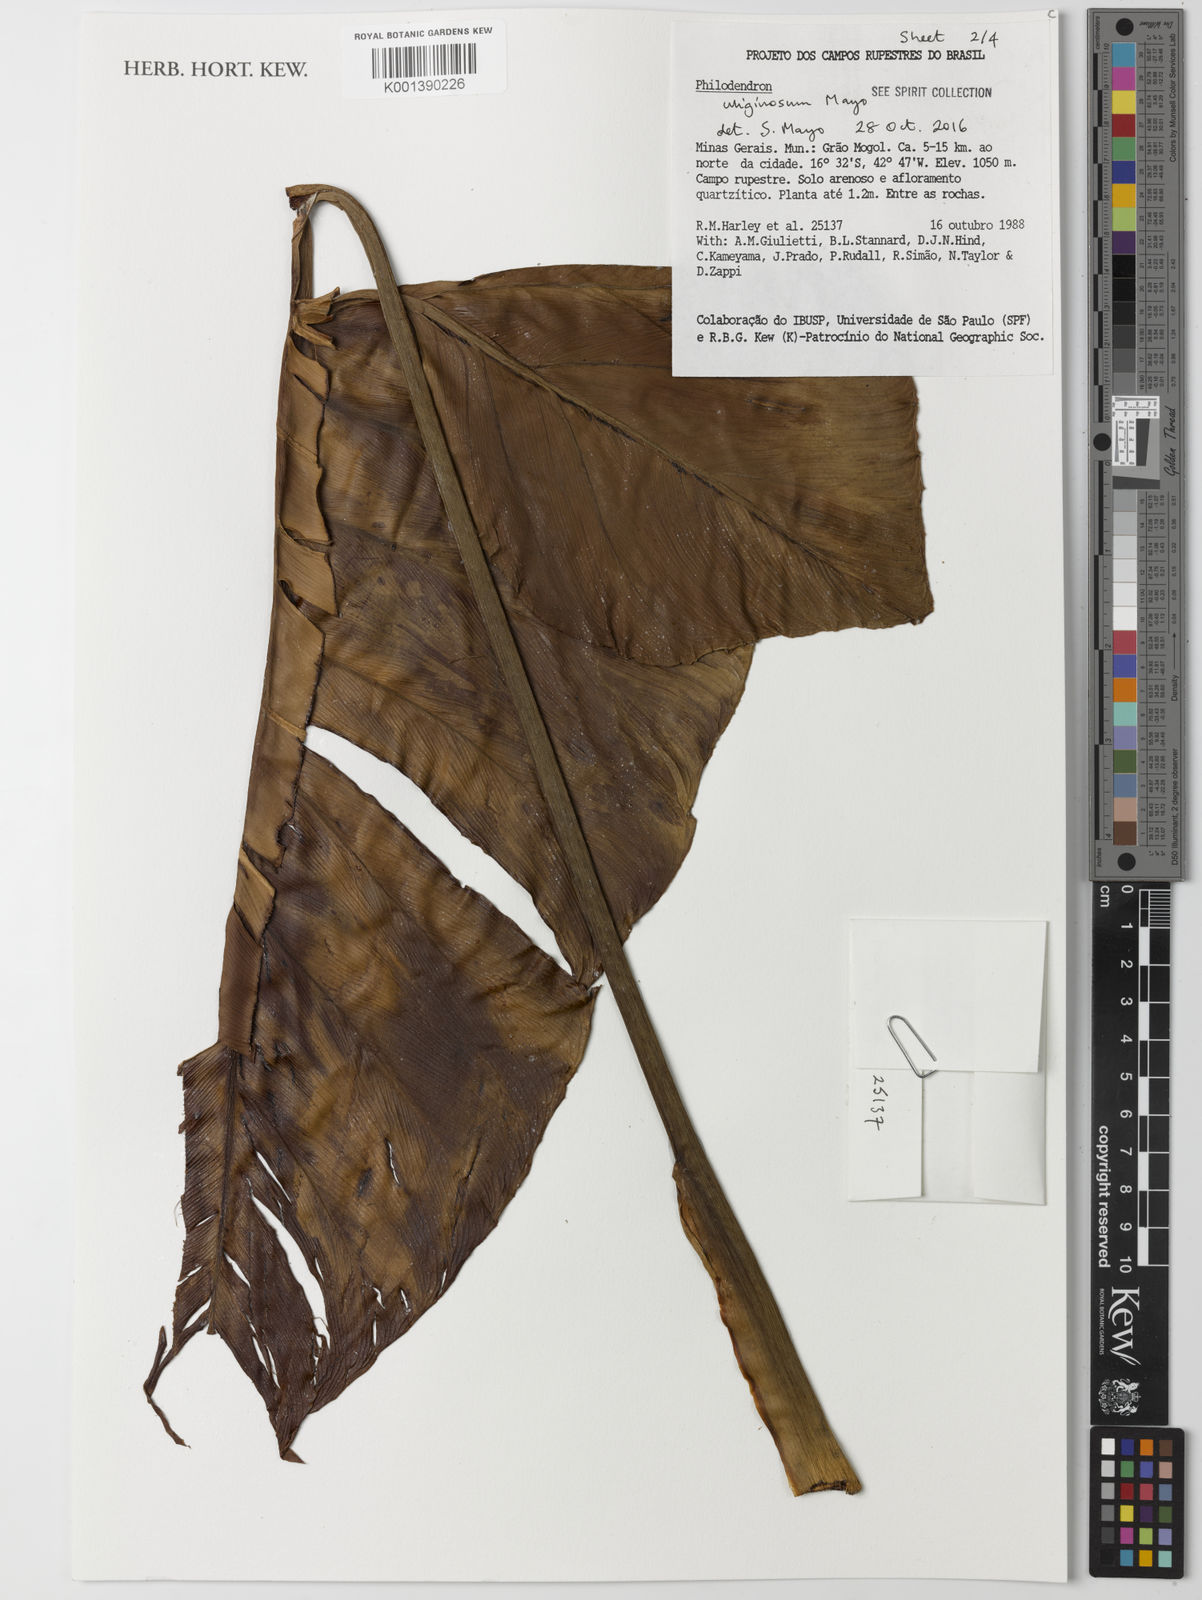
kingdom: Plantae
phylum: Tracheophyta
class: Liliopsida
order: Alismatales
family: Araceae
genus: Thaumatophyllum
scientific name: Thaumatophyllum uliginosum
